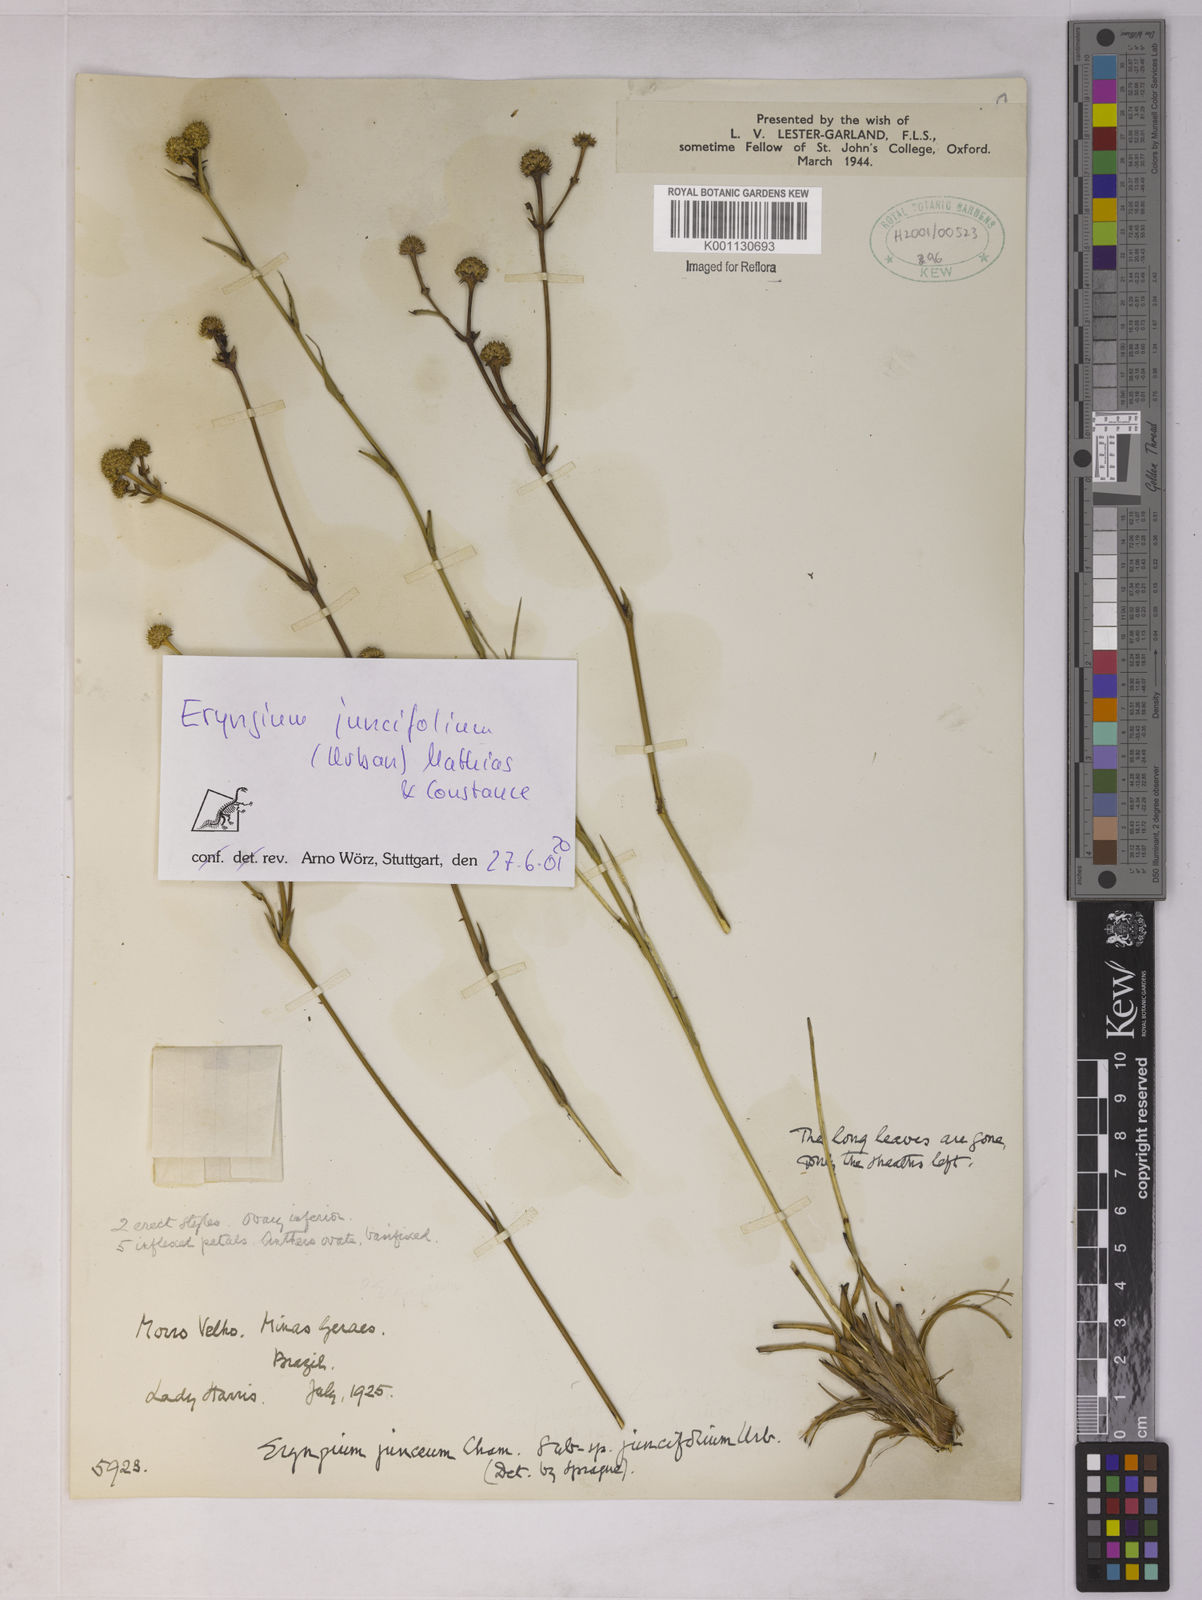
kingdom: Plantae
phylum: Tracheophyta
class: Magnoliopsida
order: Apiales
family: Apiaceae
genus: Eryngium
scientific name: Eryngium juncifolium
